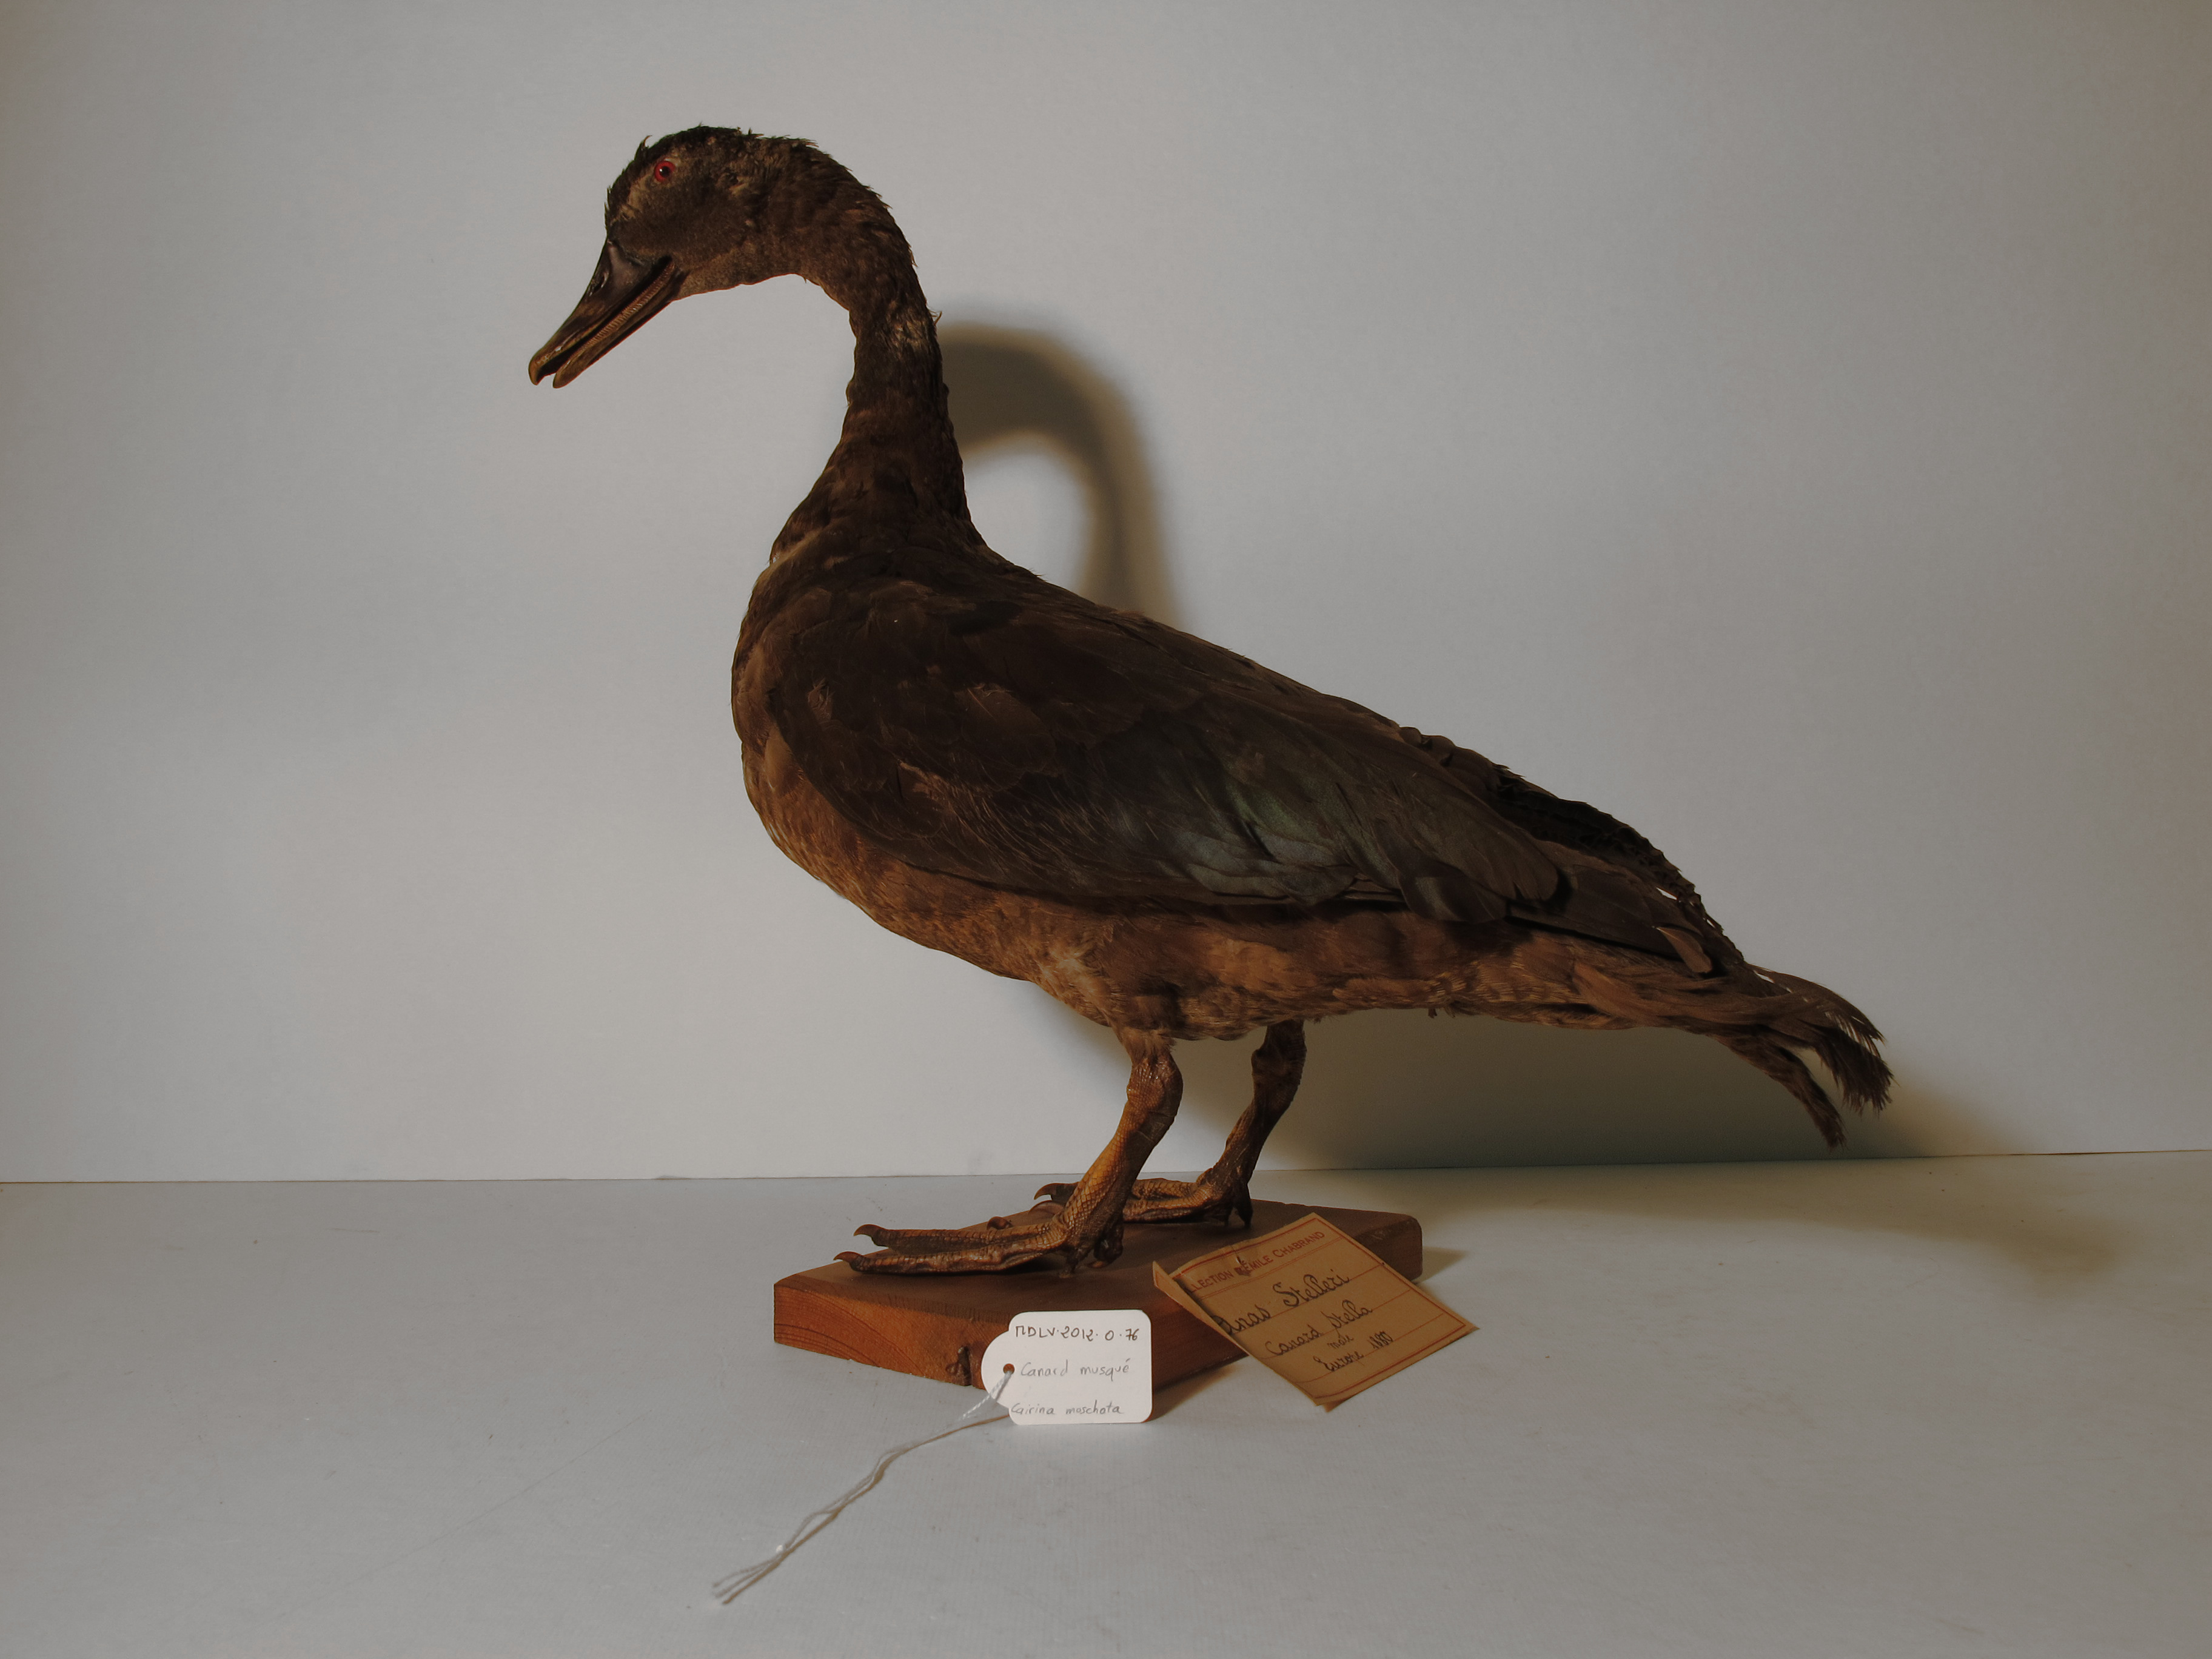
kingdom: Animalia
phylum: Chordata
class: Aves
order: Anseriformes
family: Anatidae
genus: Cairina
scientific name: Cairina moschata
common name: Muscovy Duck
